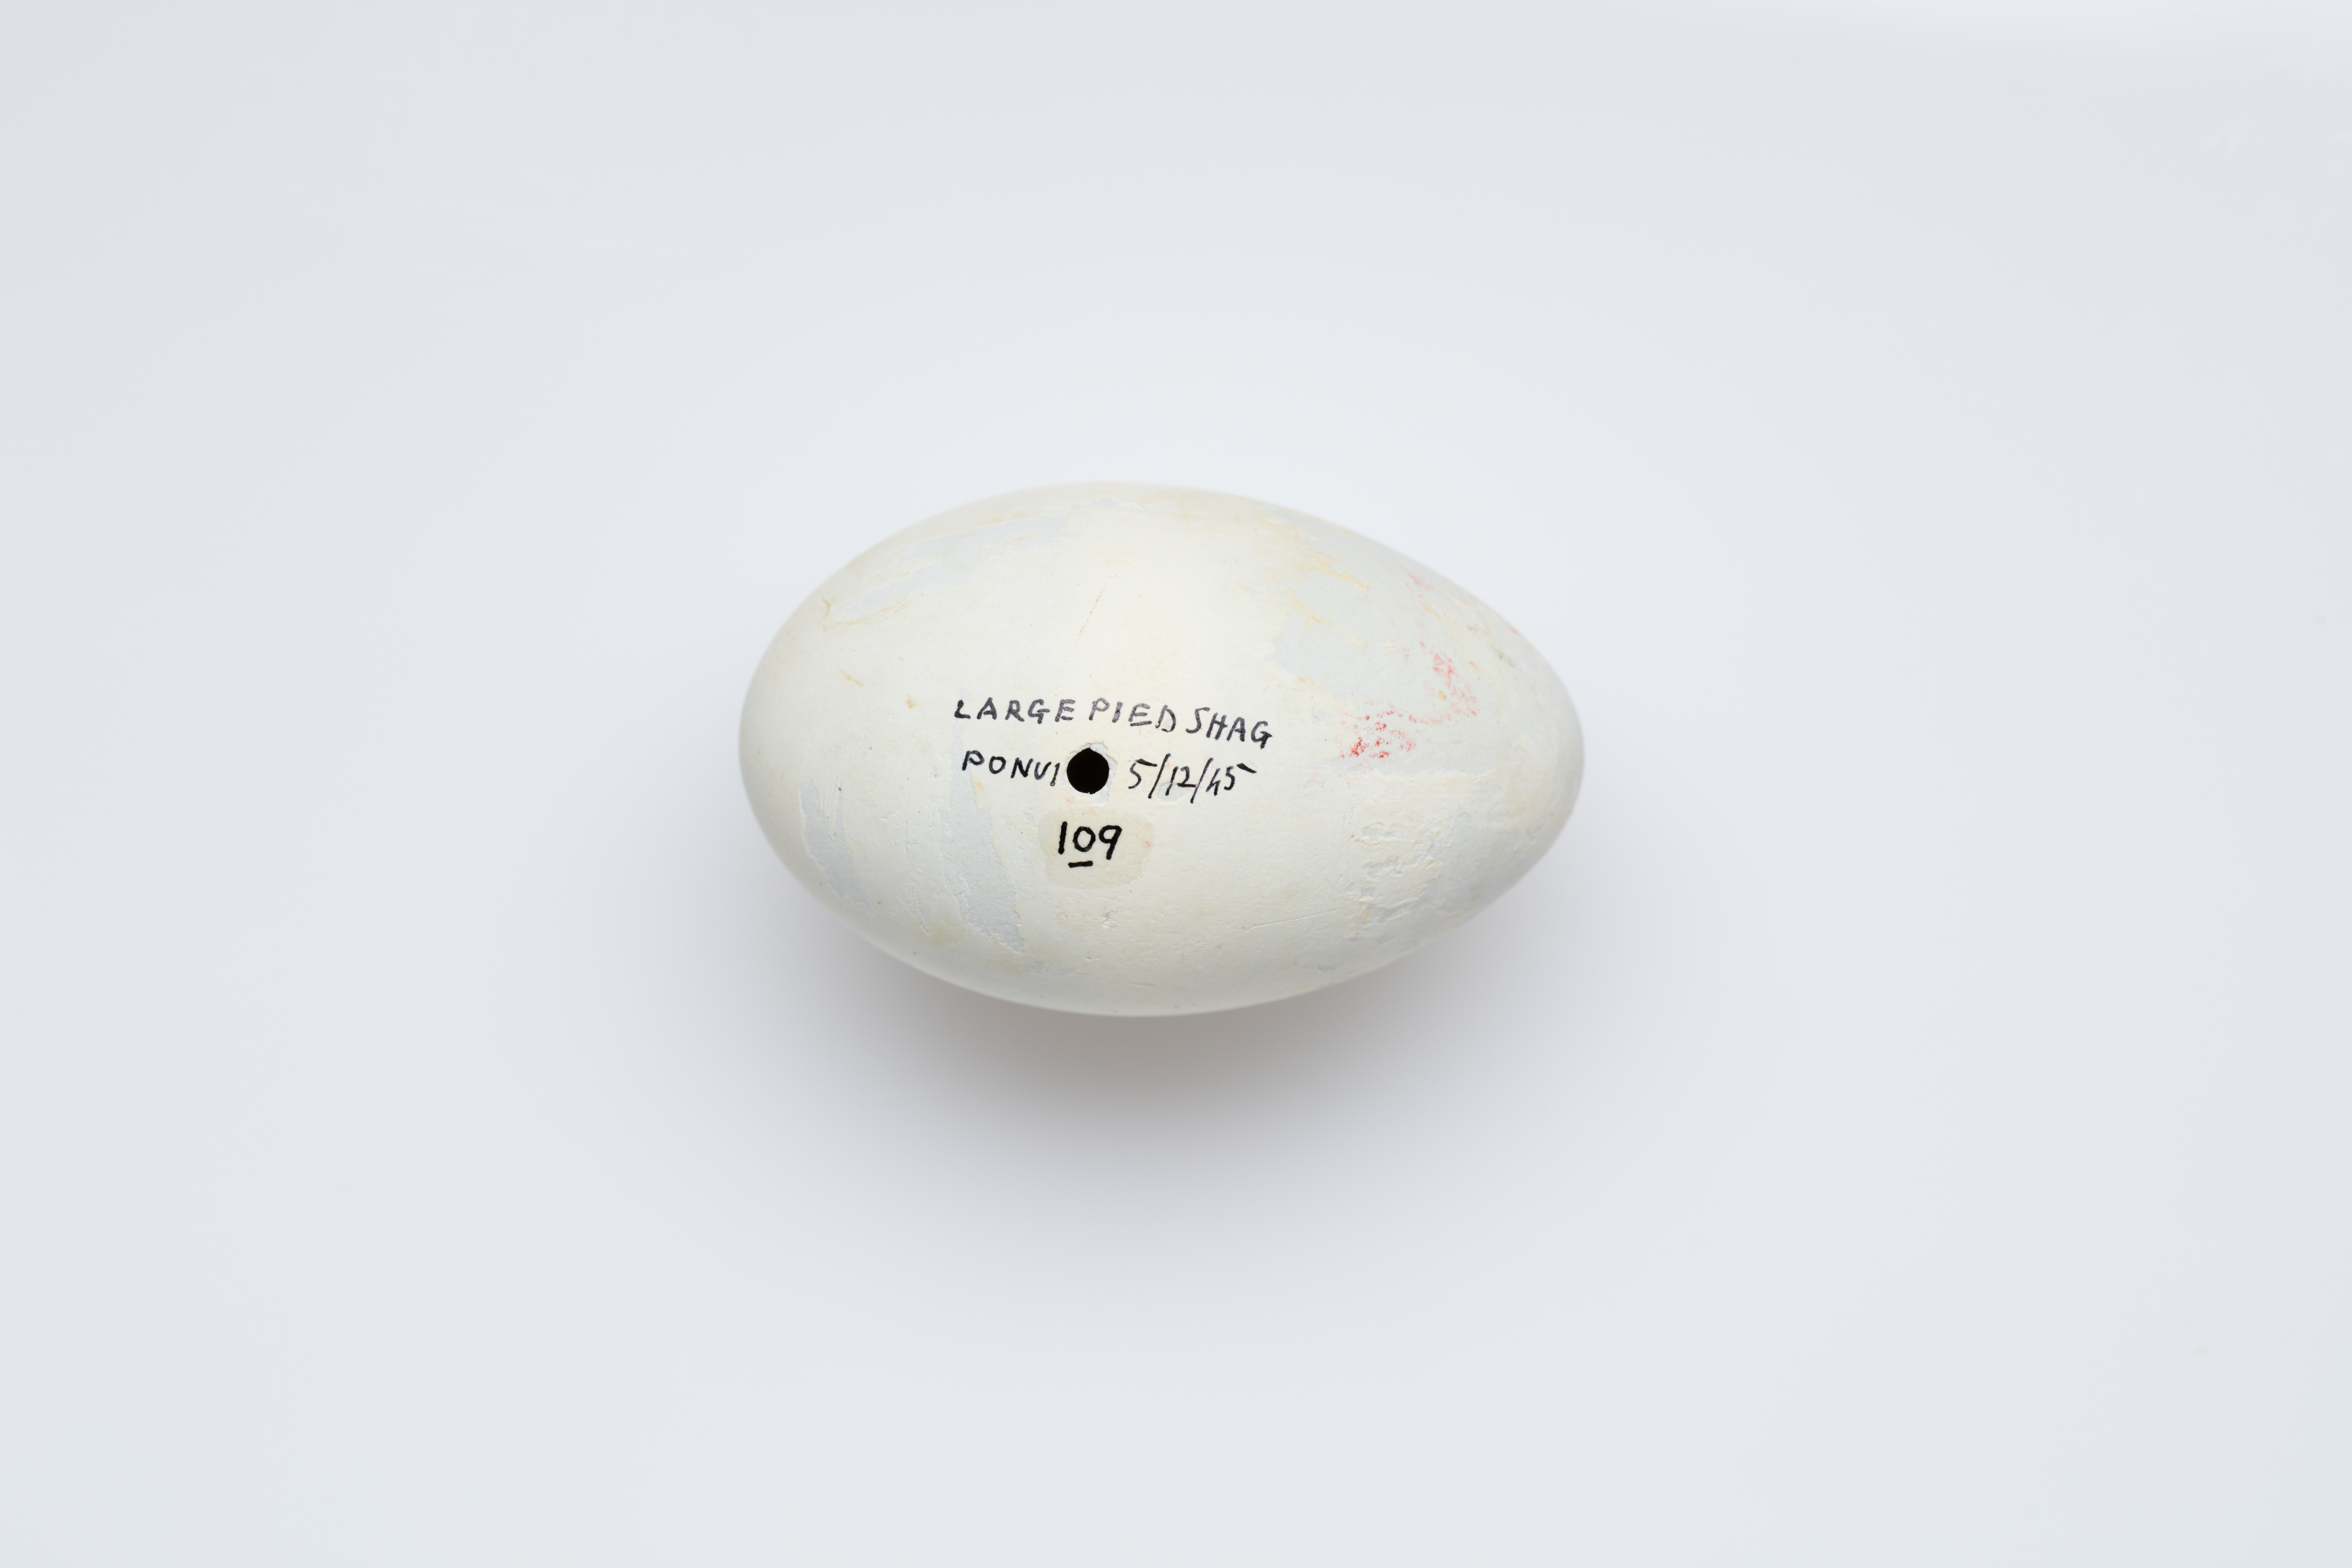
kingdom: Animalia
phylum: Chordata
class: Aves
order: Suliformes
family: Phalacrocoracidae
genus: Phalacrocorax
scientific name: Phalacrocorax varius
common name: Pied cormorant
